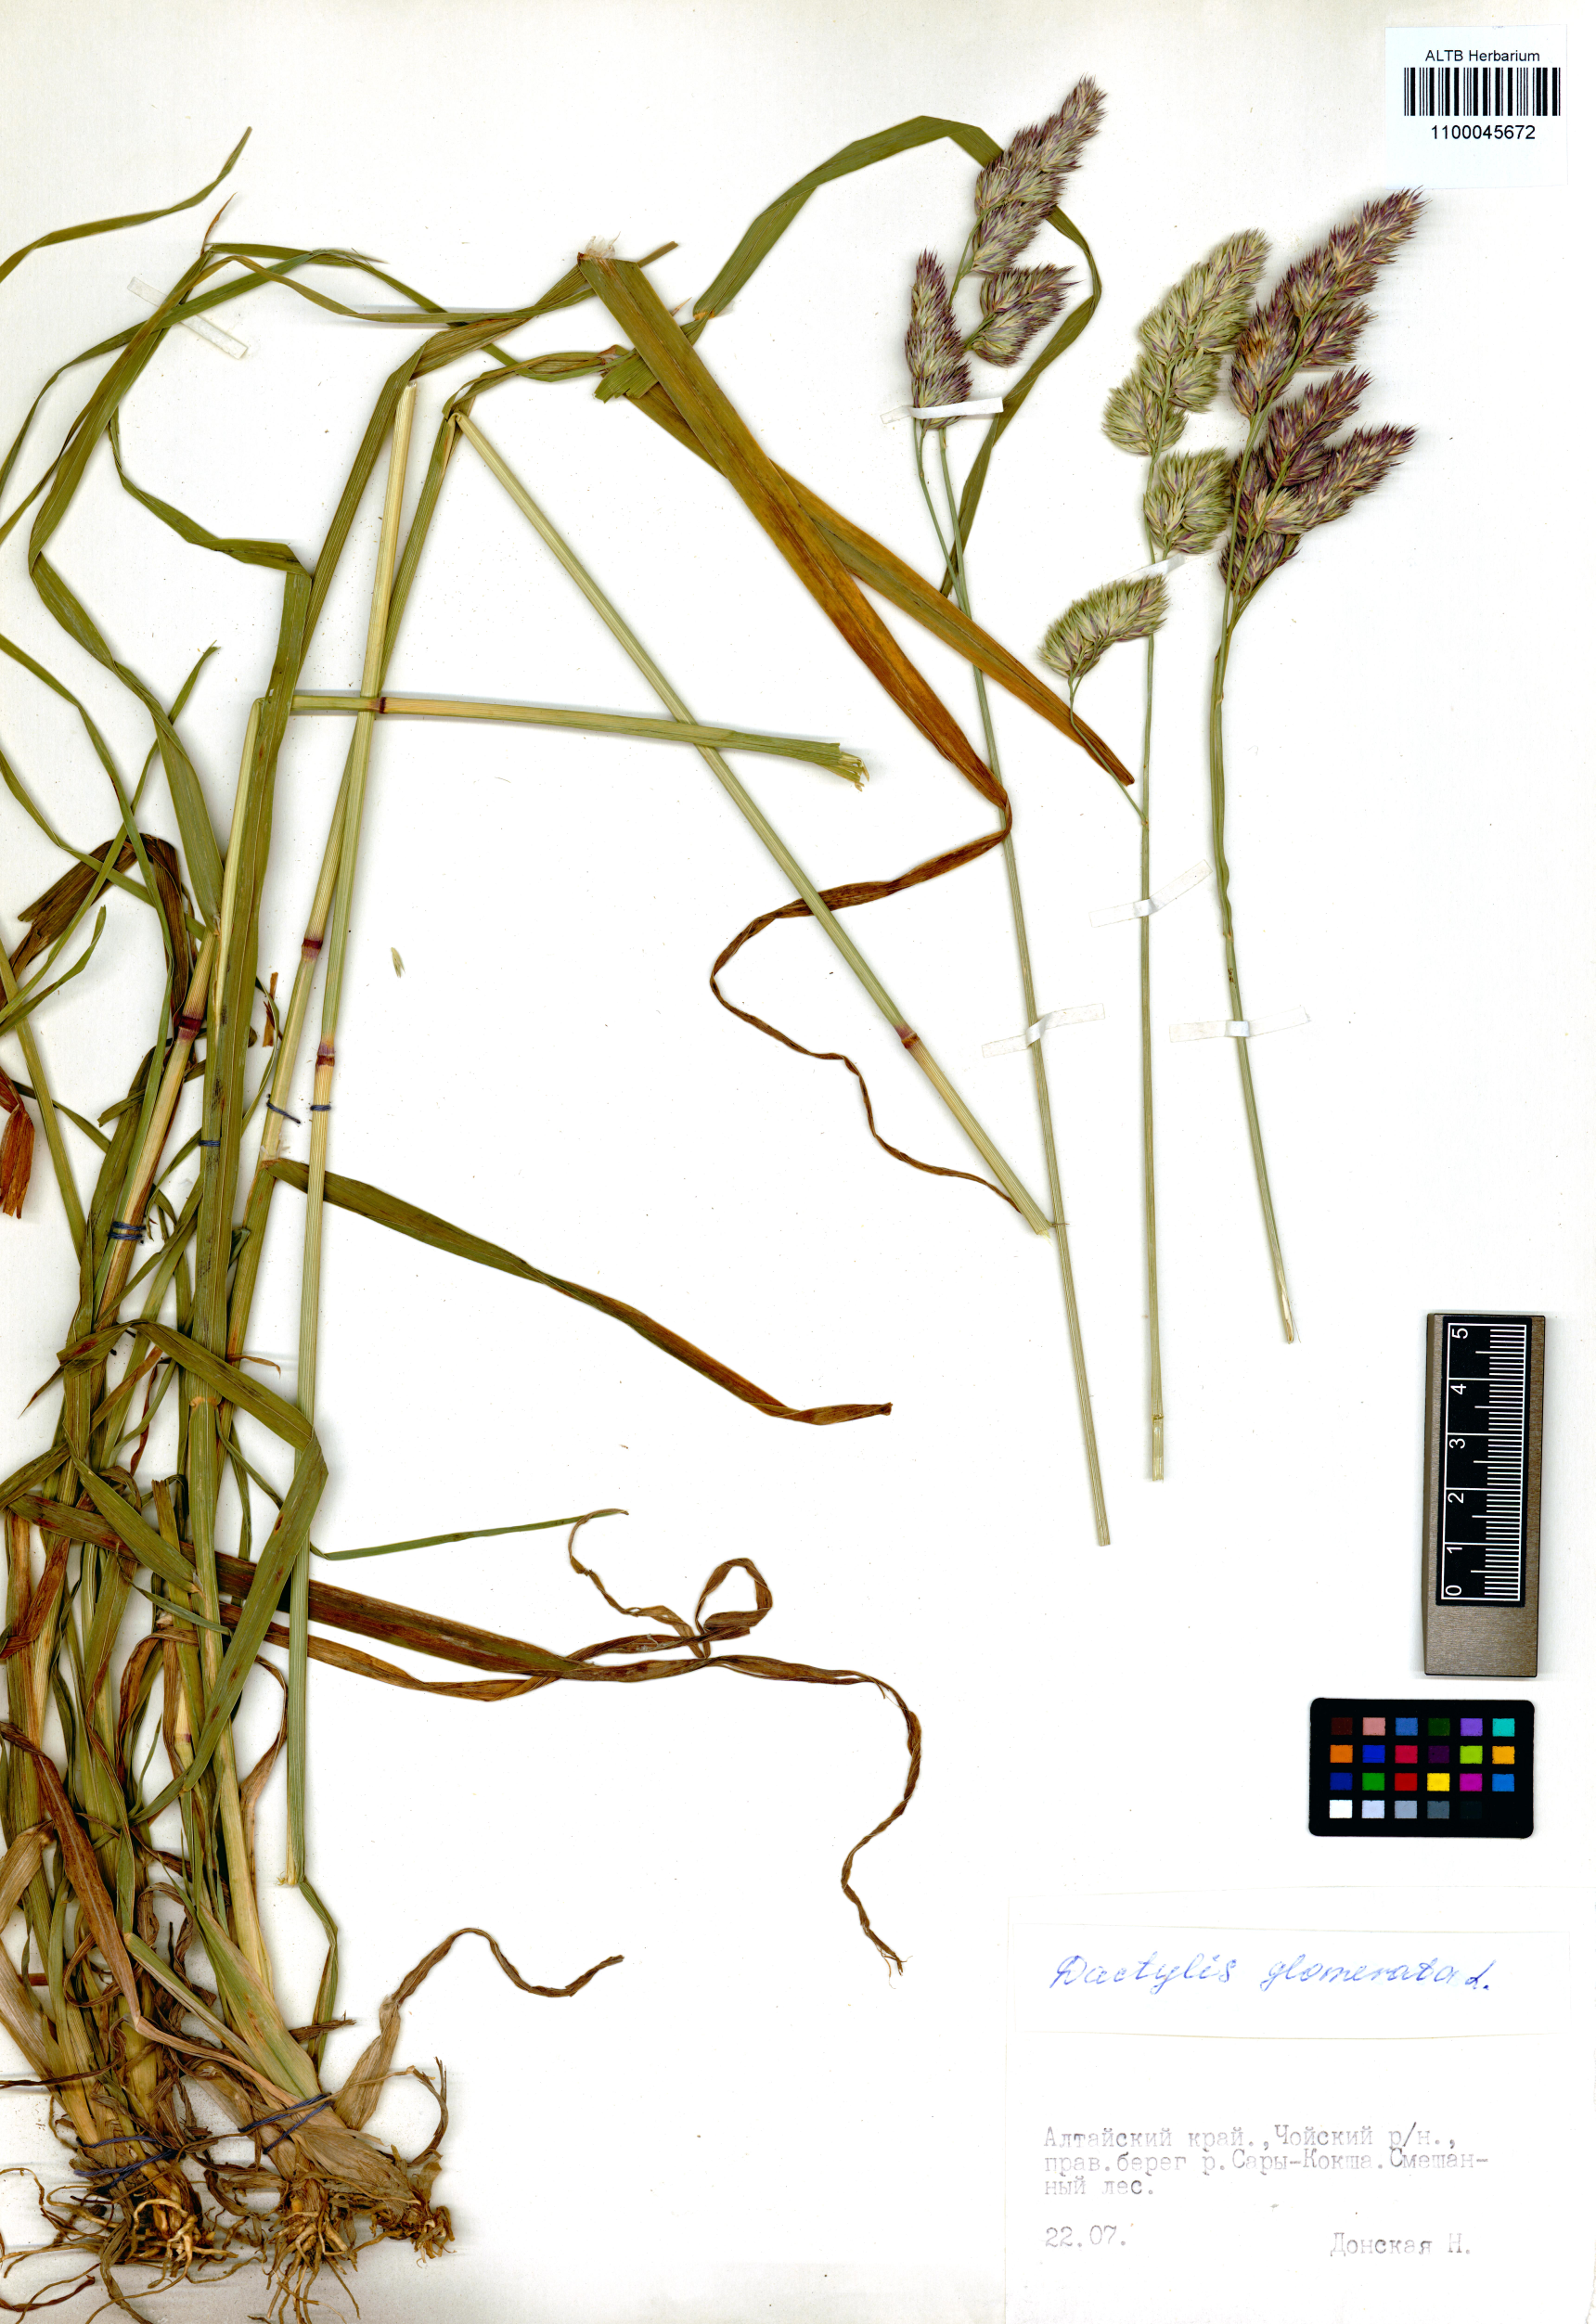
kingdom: Plantae
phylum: Tracheophyta
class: Liliopsida
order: Poales
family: Poaceae
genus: Dactylis
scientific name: Dactylis glomerata
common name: Orchardgrass
